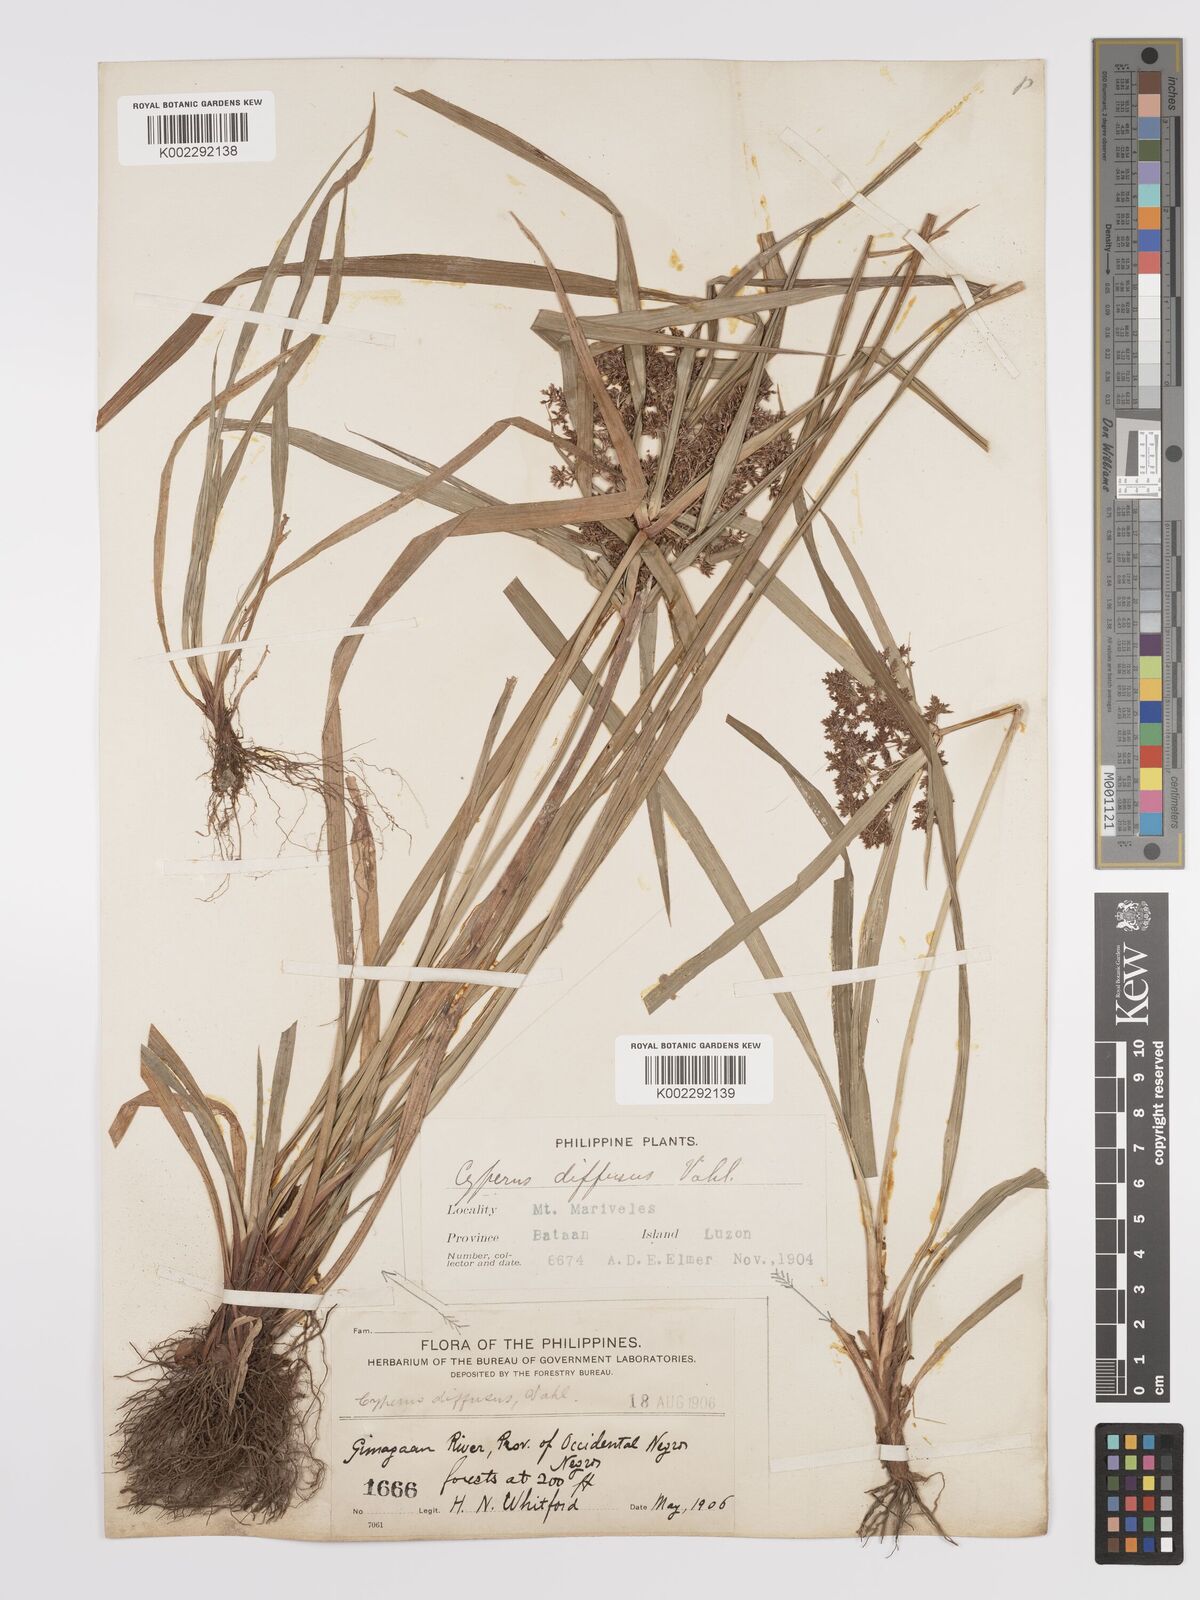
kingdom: Plantae
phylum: Tracheophyta
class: Liliopsida
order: Poales
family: Cyperaceae
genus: Cyperus
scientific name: Cyperus diffusus
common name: Dwarf umbrella grass
